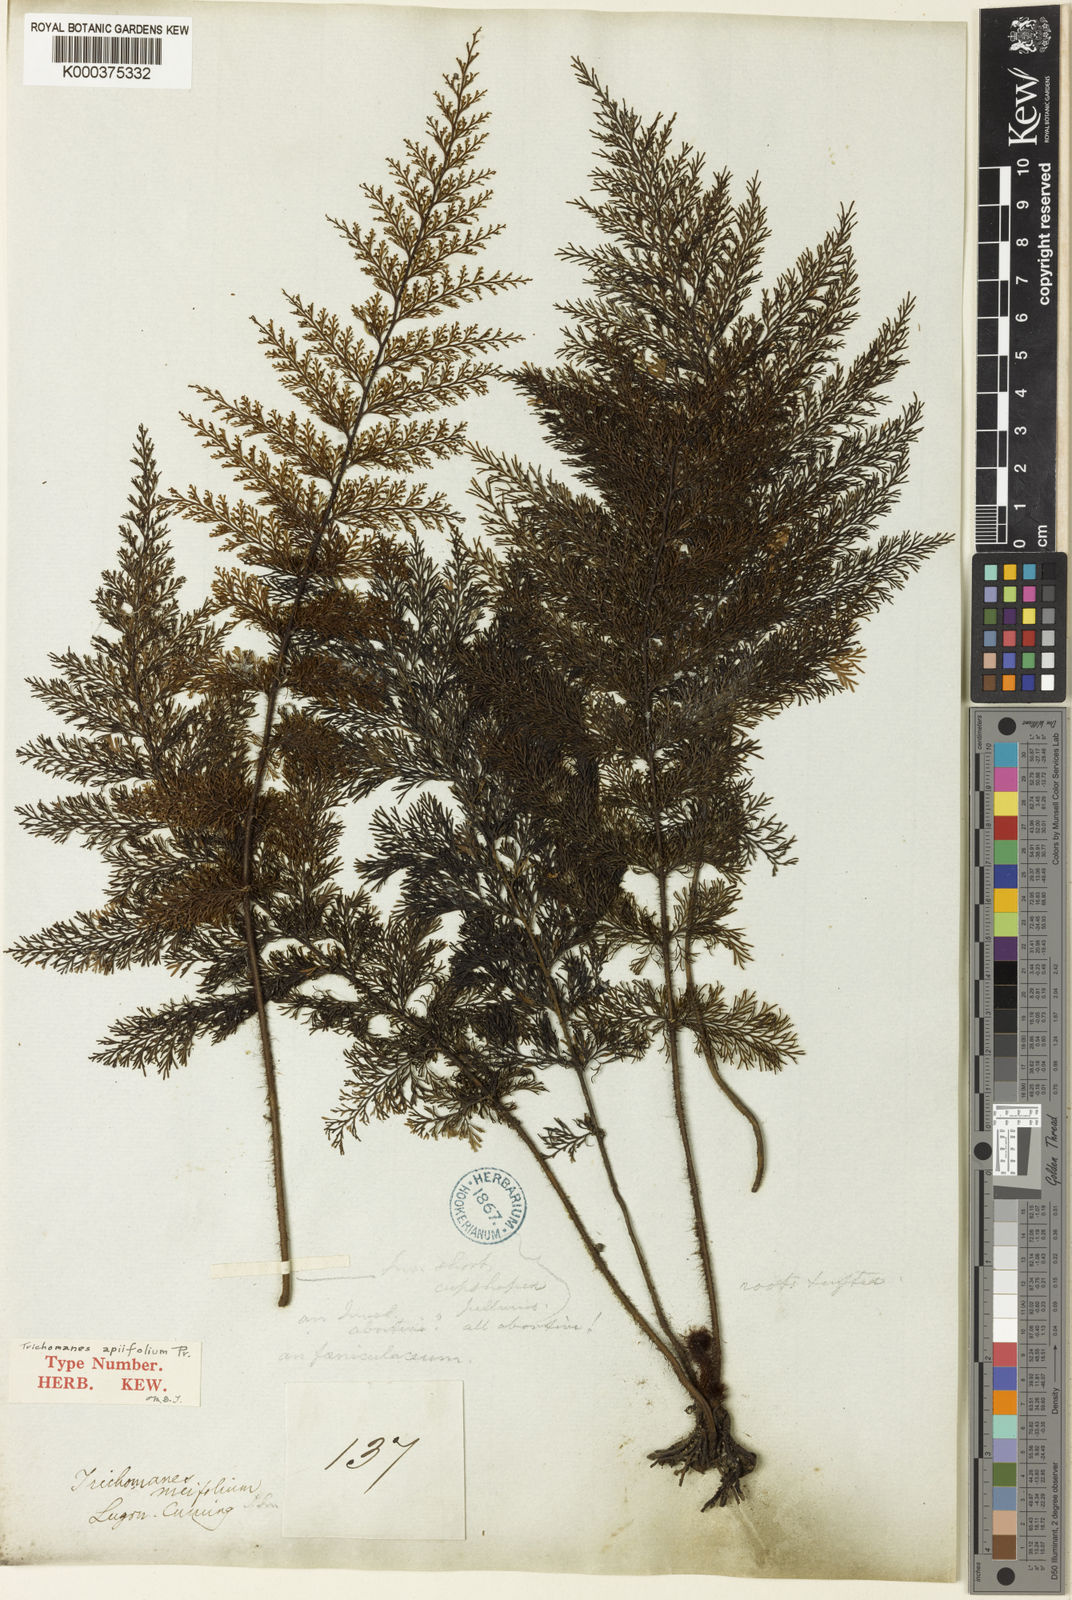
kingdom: Plantae
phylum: Tracheophyta
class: Polypodiopsida
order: Hymenophyllales
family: Hymenophyllaceae
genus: Callistopteris
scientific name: Callistopteris apiifolia
